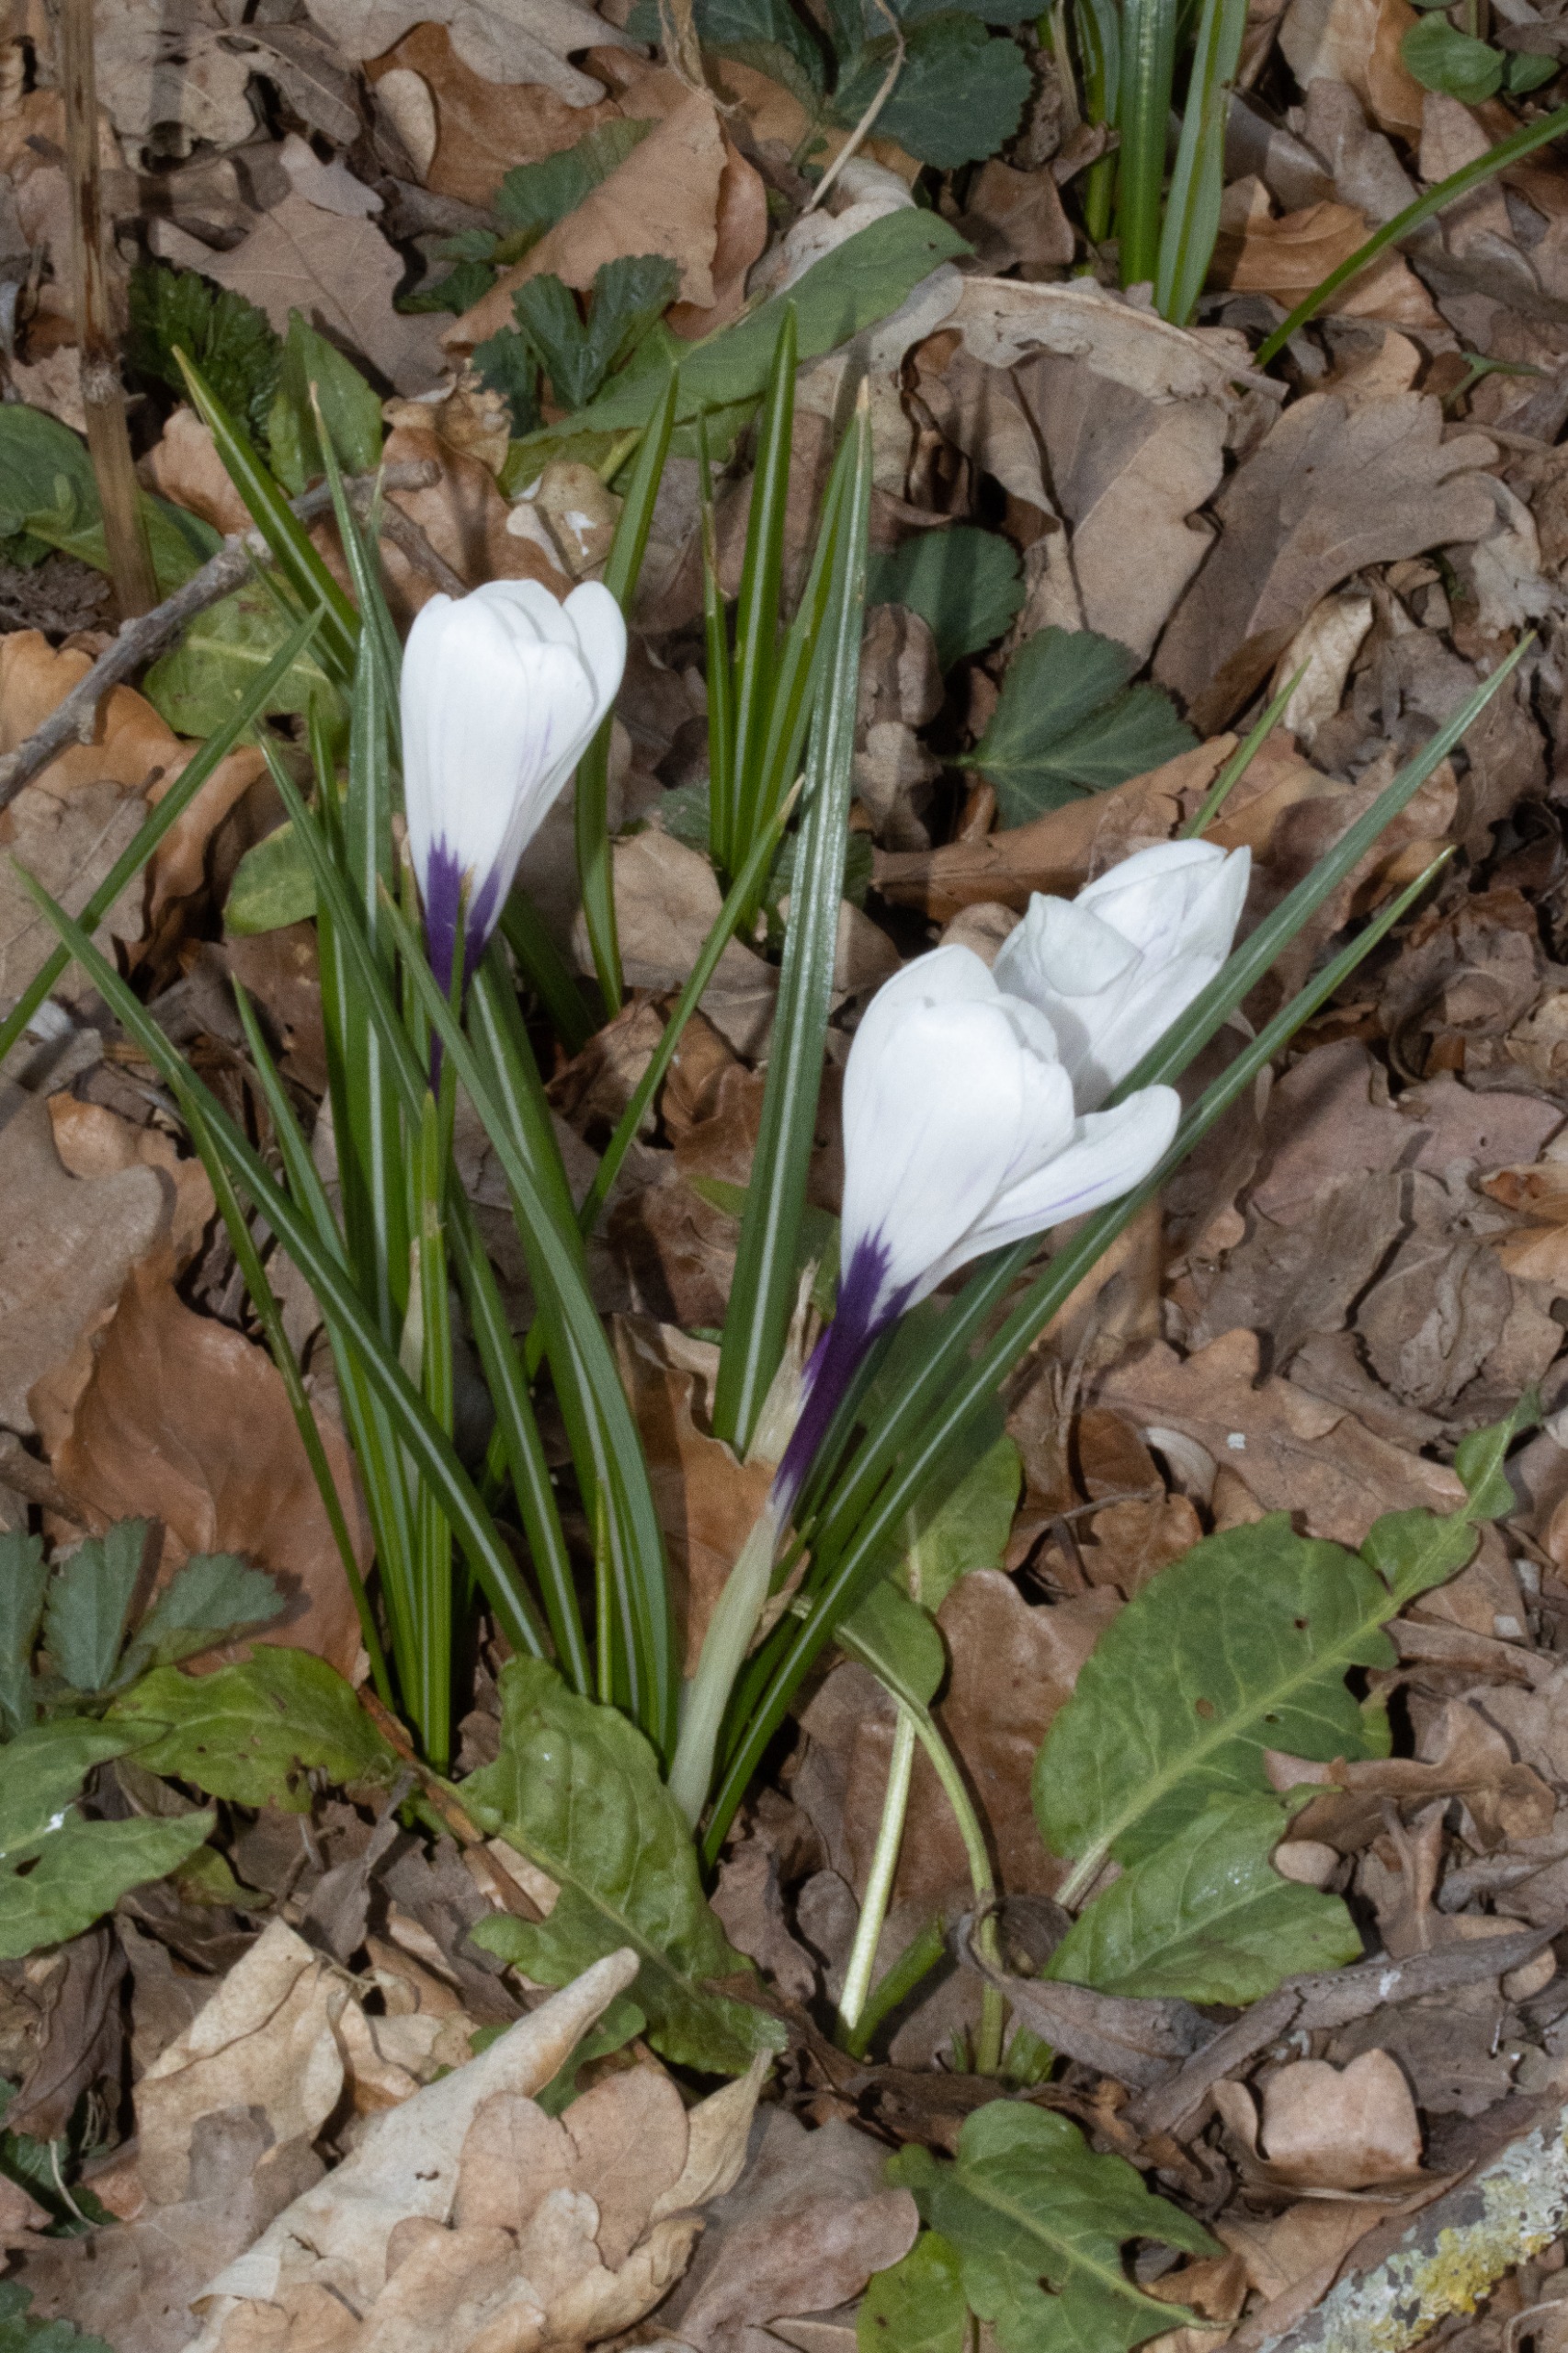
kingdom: Plantae
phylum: Tracheophyta
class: Liliopsida
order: Asparagales
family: Iridaceae
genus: Crocus
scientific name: Crocus vernus
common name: Vår-krokus
